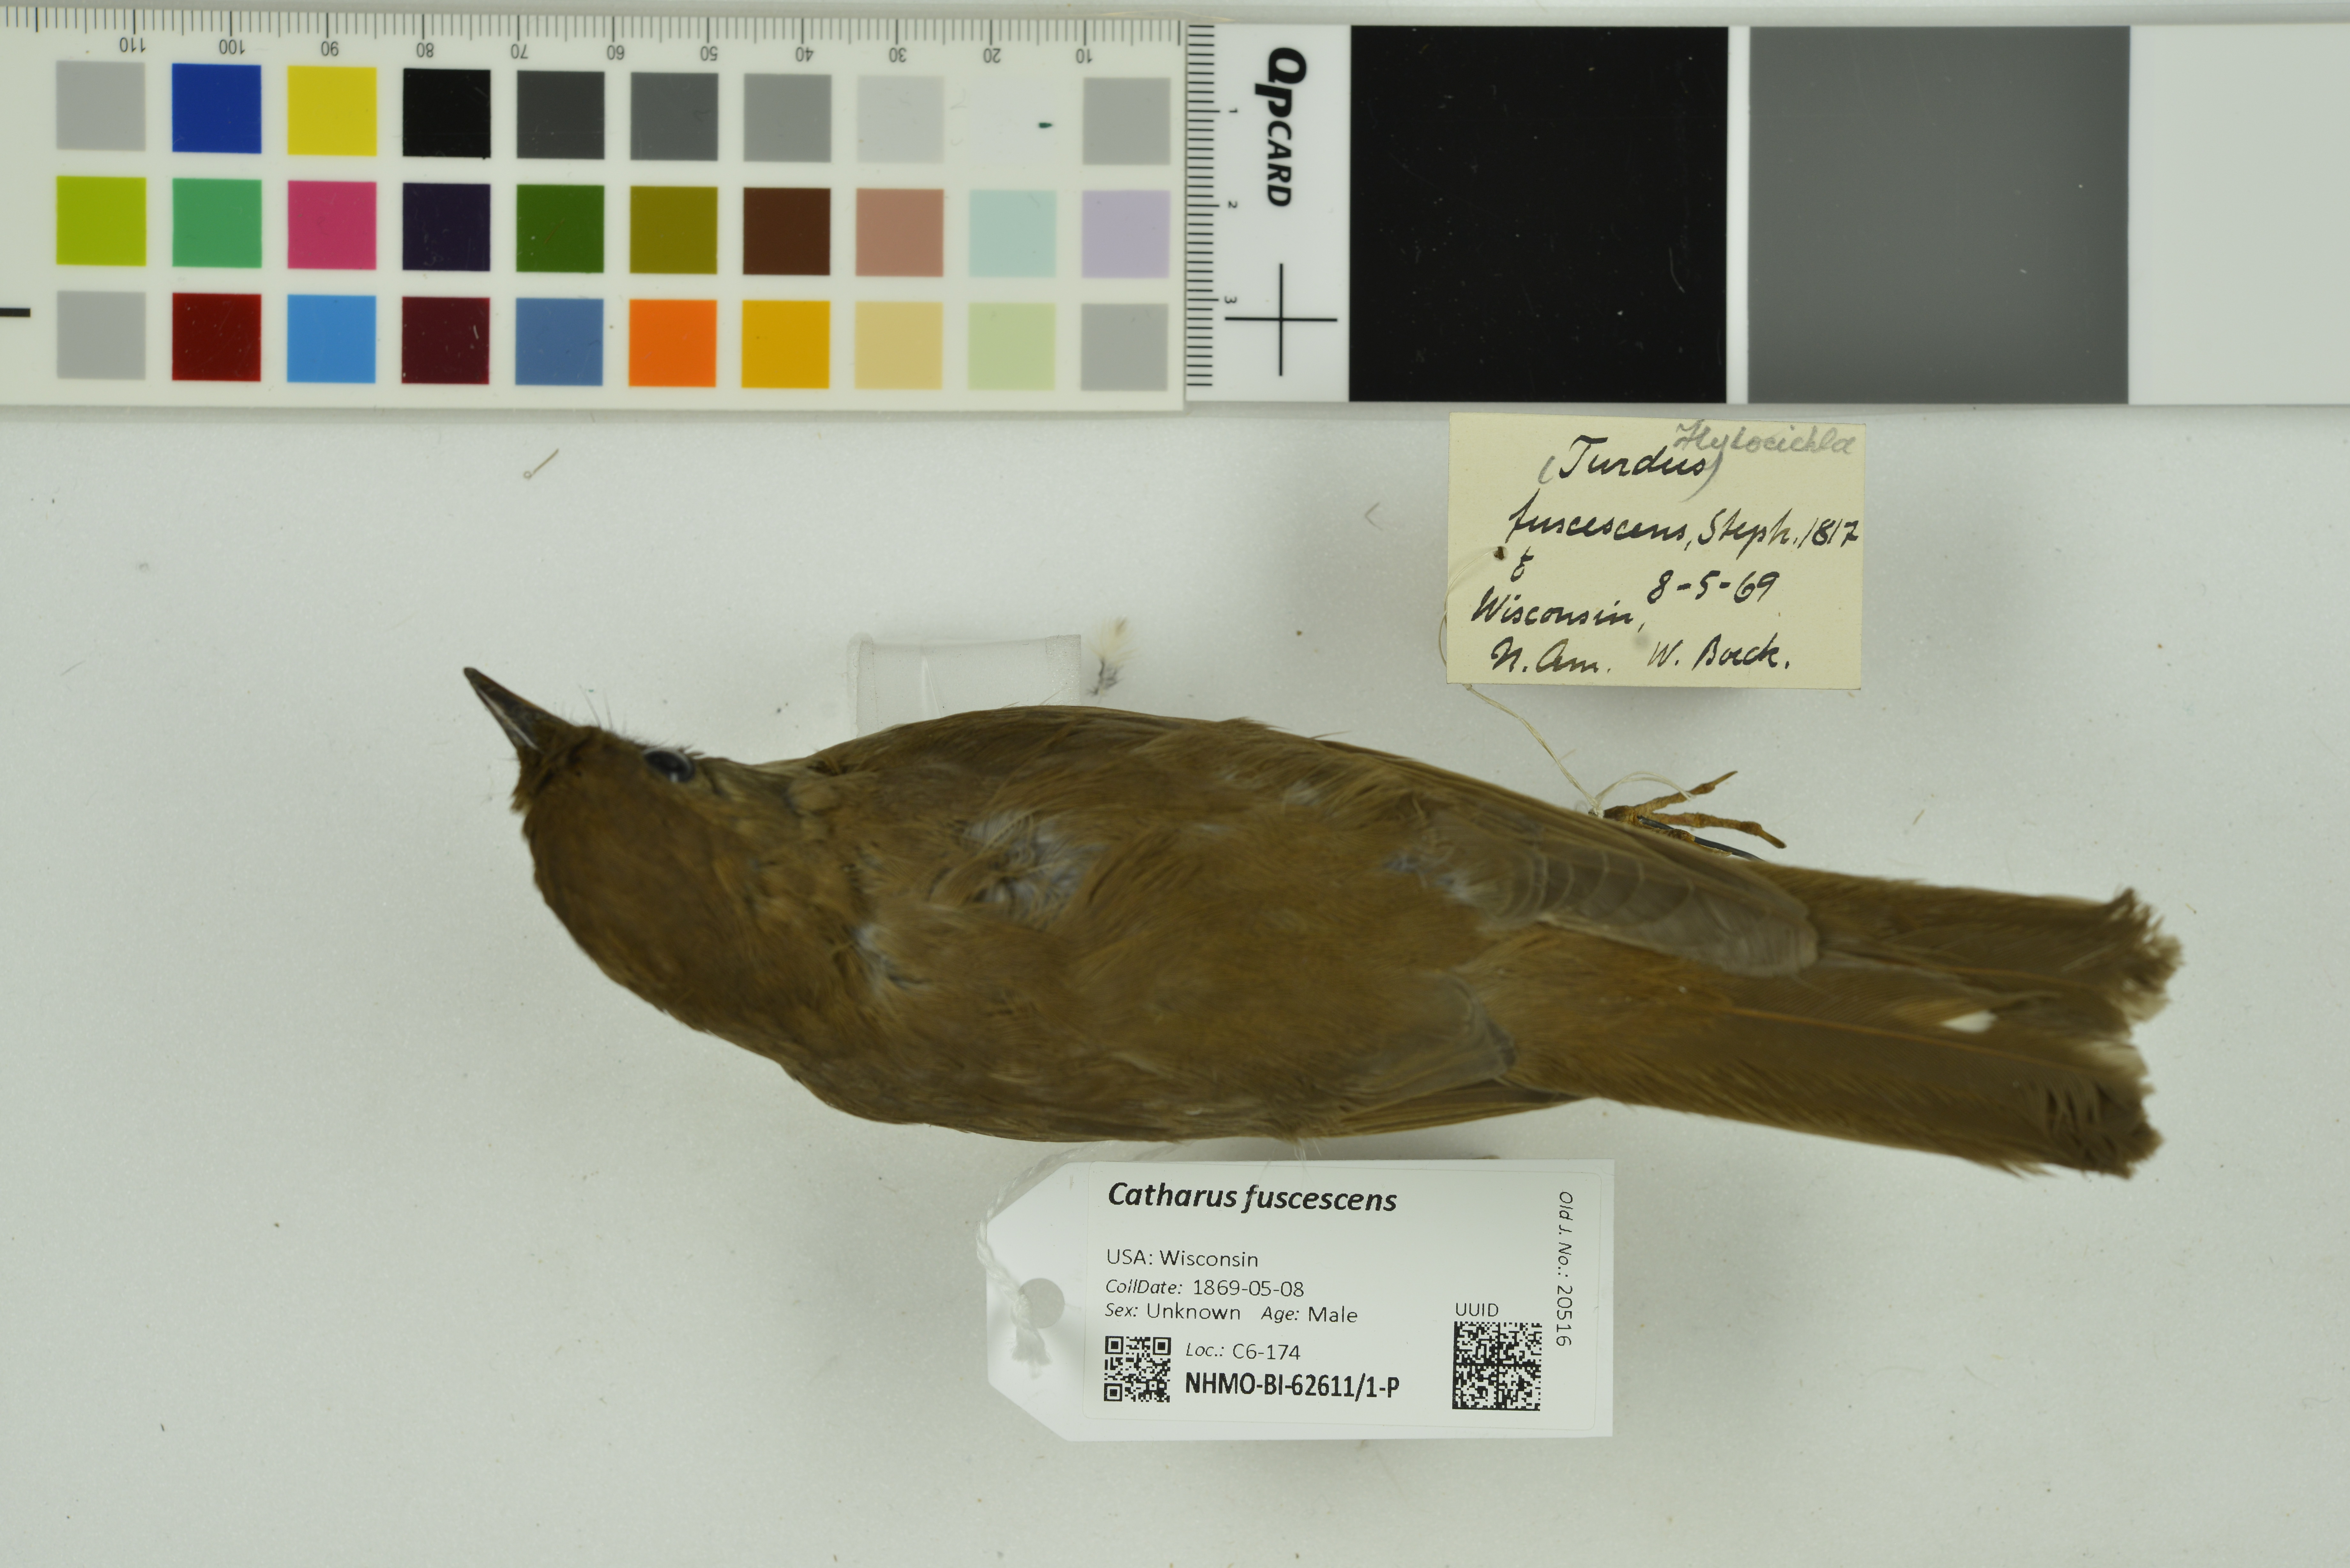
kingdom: Animalia
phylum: Chordata
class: Aves
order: Passeriformes
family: Turdidae
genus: Catharus
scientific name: Catharus fuscescens
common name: Veery
